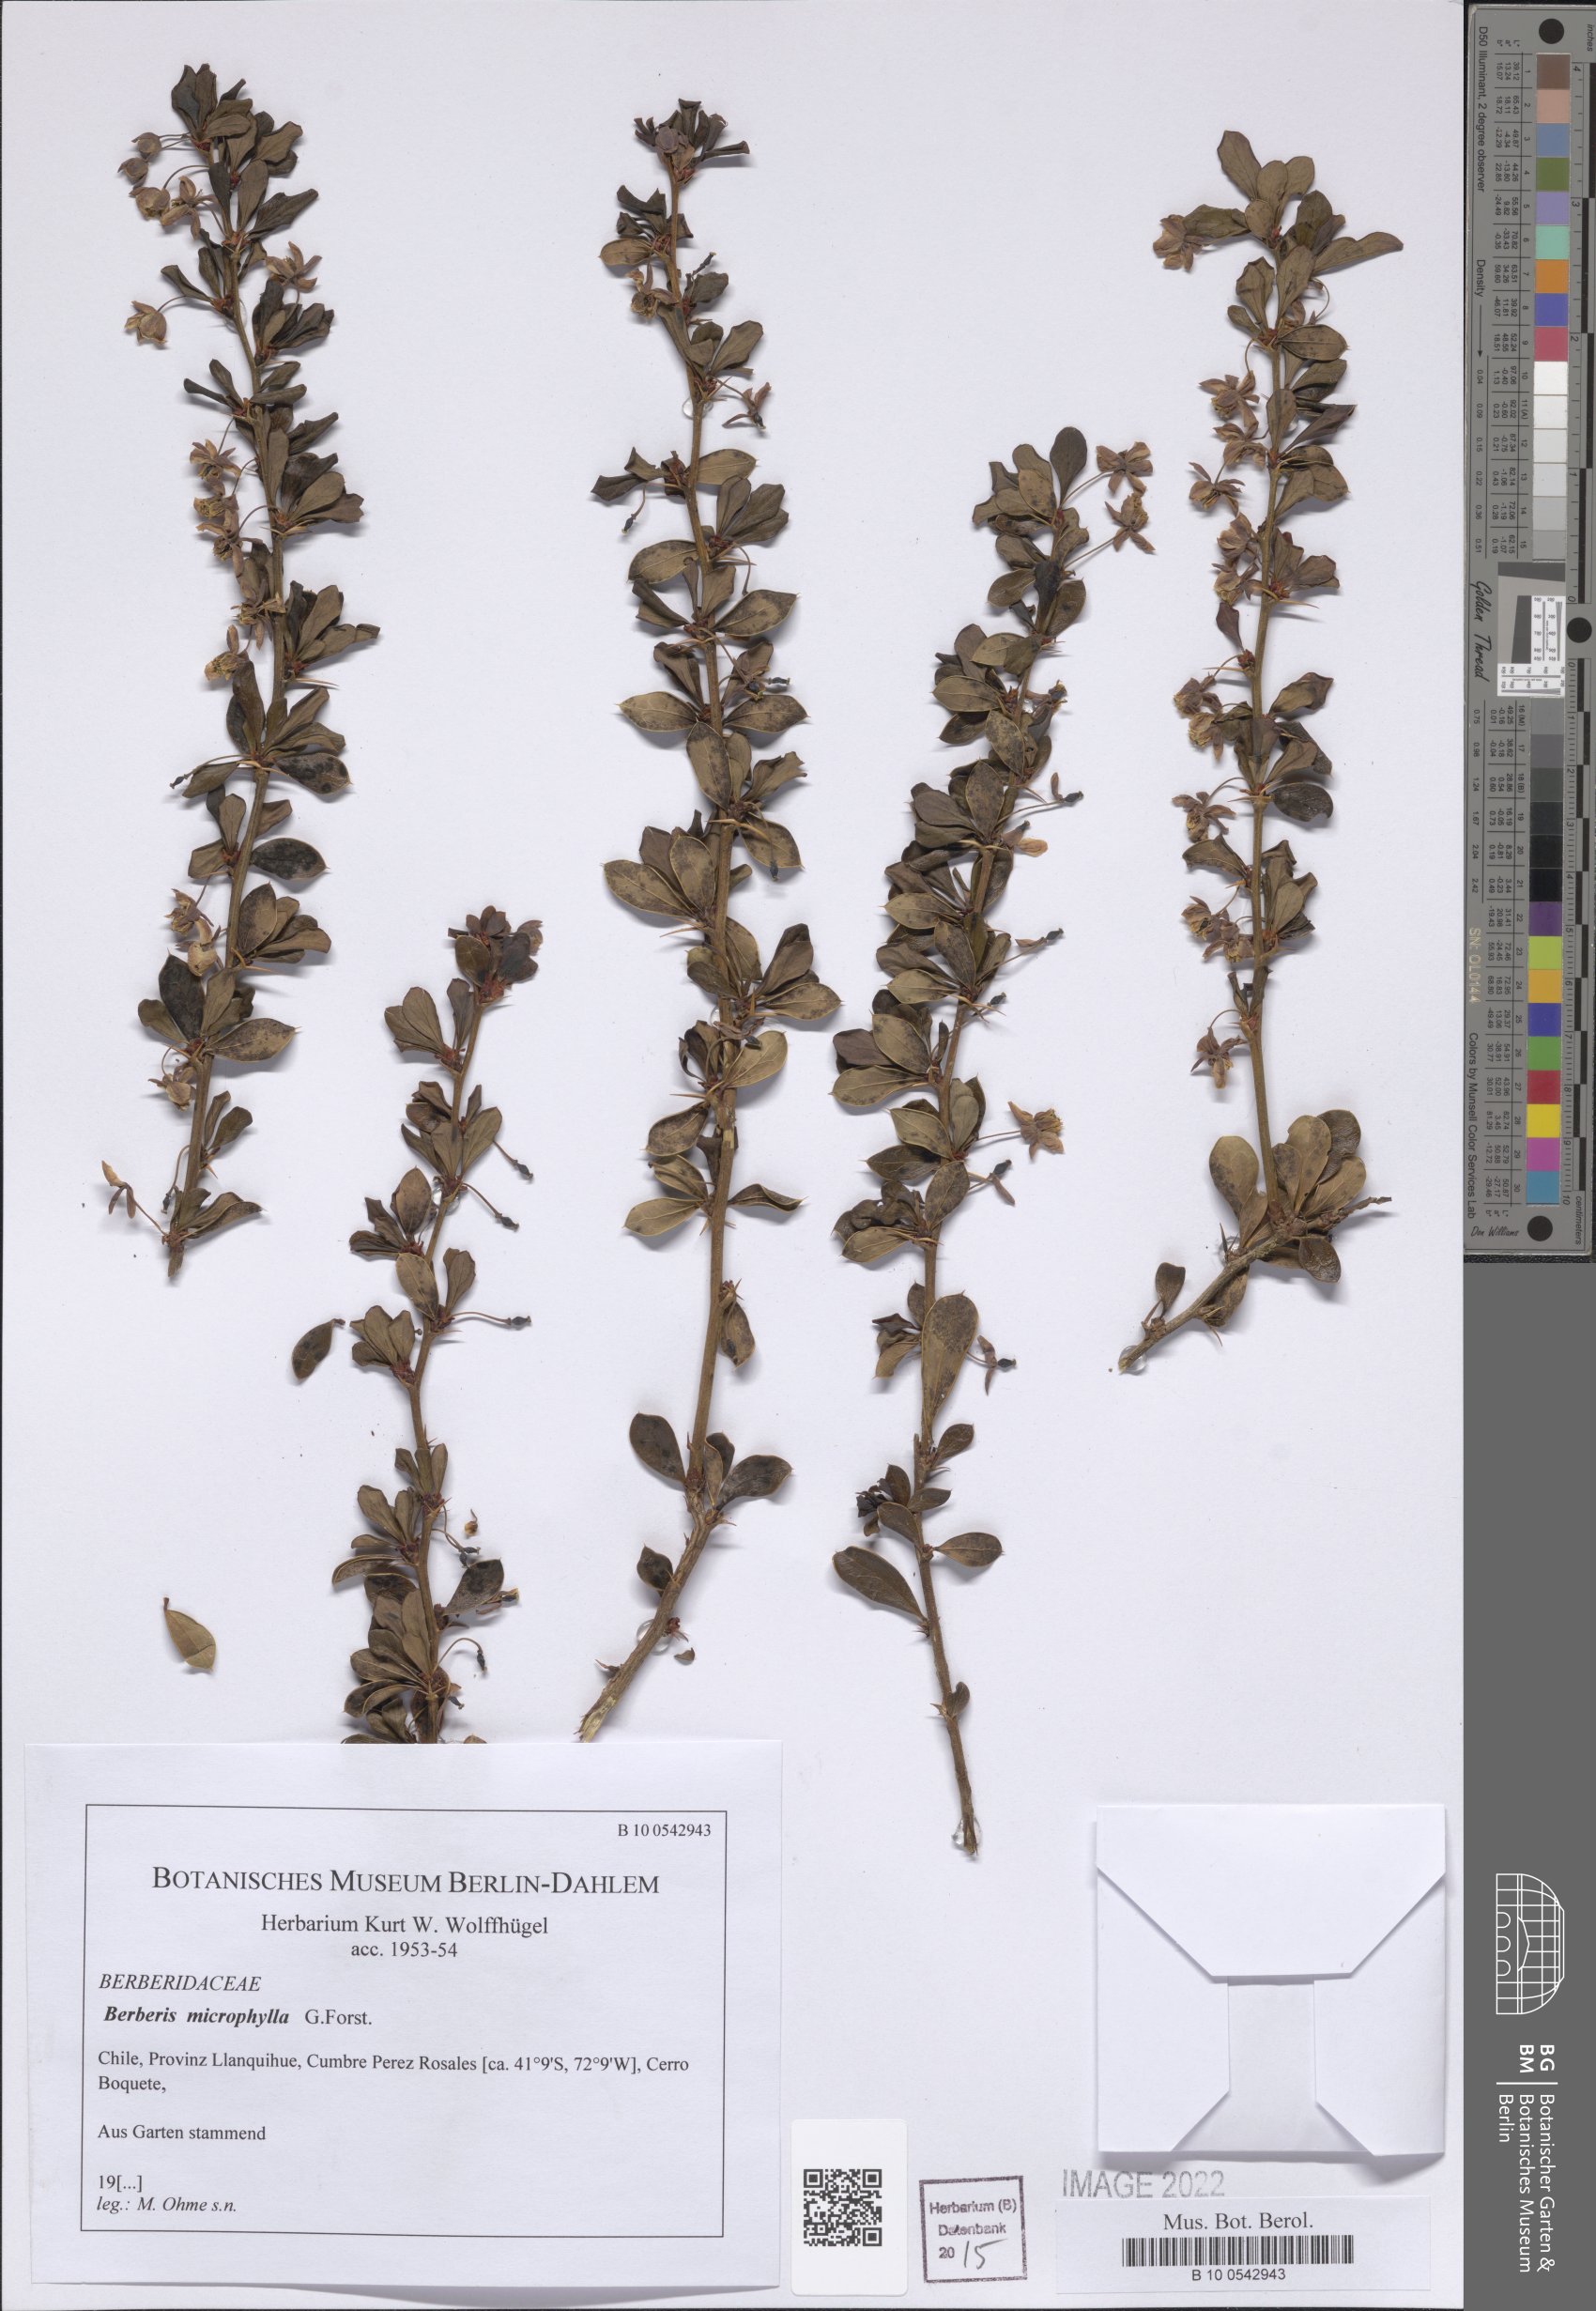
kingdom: Plantae
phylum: Tracheophyta
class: Magnoliopsida
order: Ranunculales
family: Berberidaceae
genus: Berberis
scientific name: Berberis microphylla
